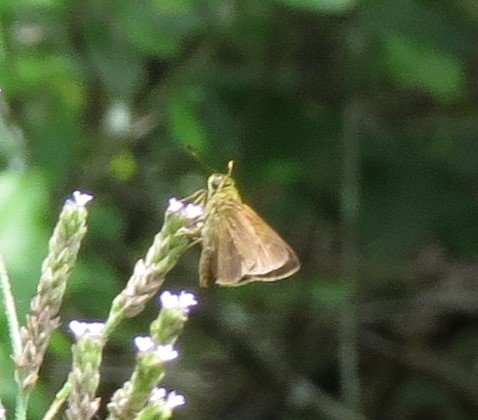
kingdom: Animalia
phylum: Arthropoda
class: Insecta
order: Lepidoptera
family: Hesperiidae
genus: Vernia
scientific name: Vernia verna
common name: Little Glassywing
